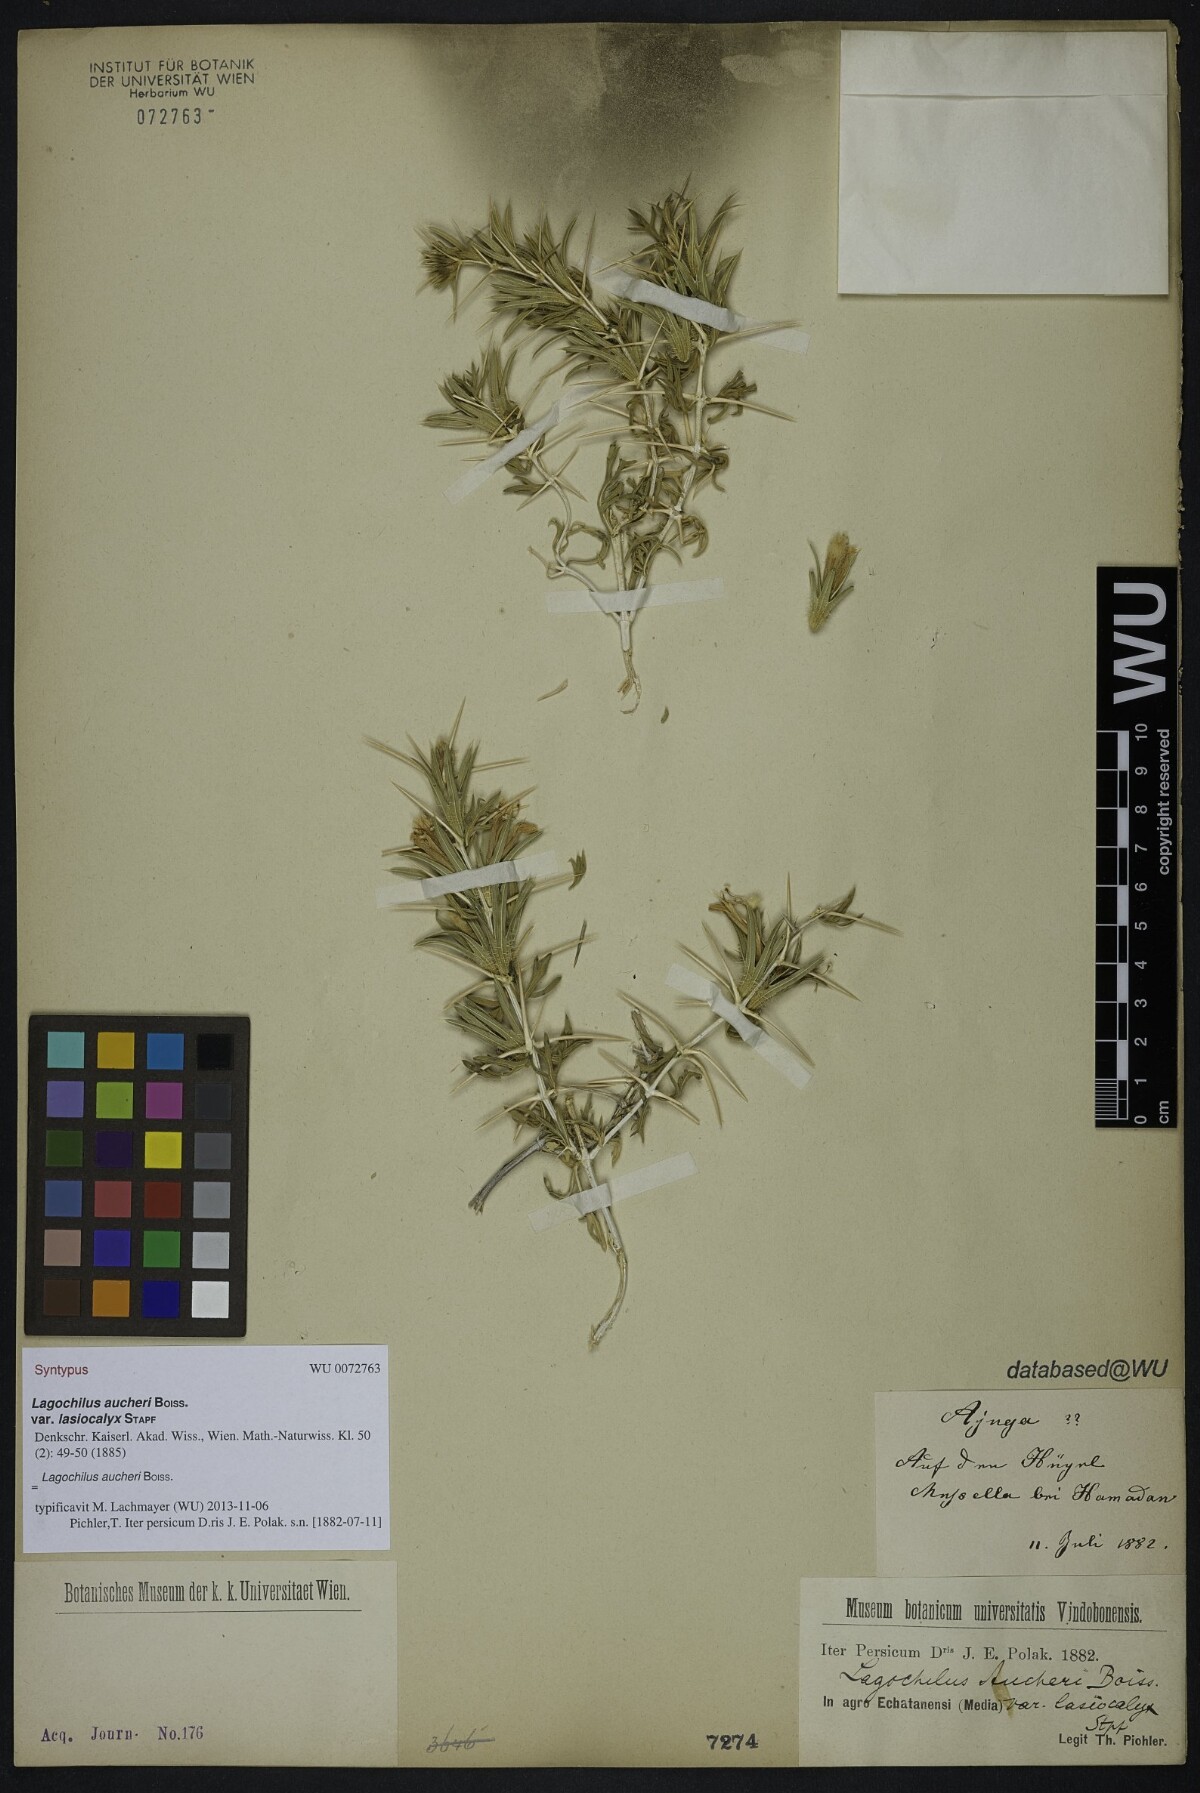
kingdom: Plantae
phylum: Tracheophyta
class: Magnoliopsida
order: Lamiales
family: Lamiaceae
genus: Lagochilus
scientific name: Lagochilus aucheri
